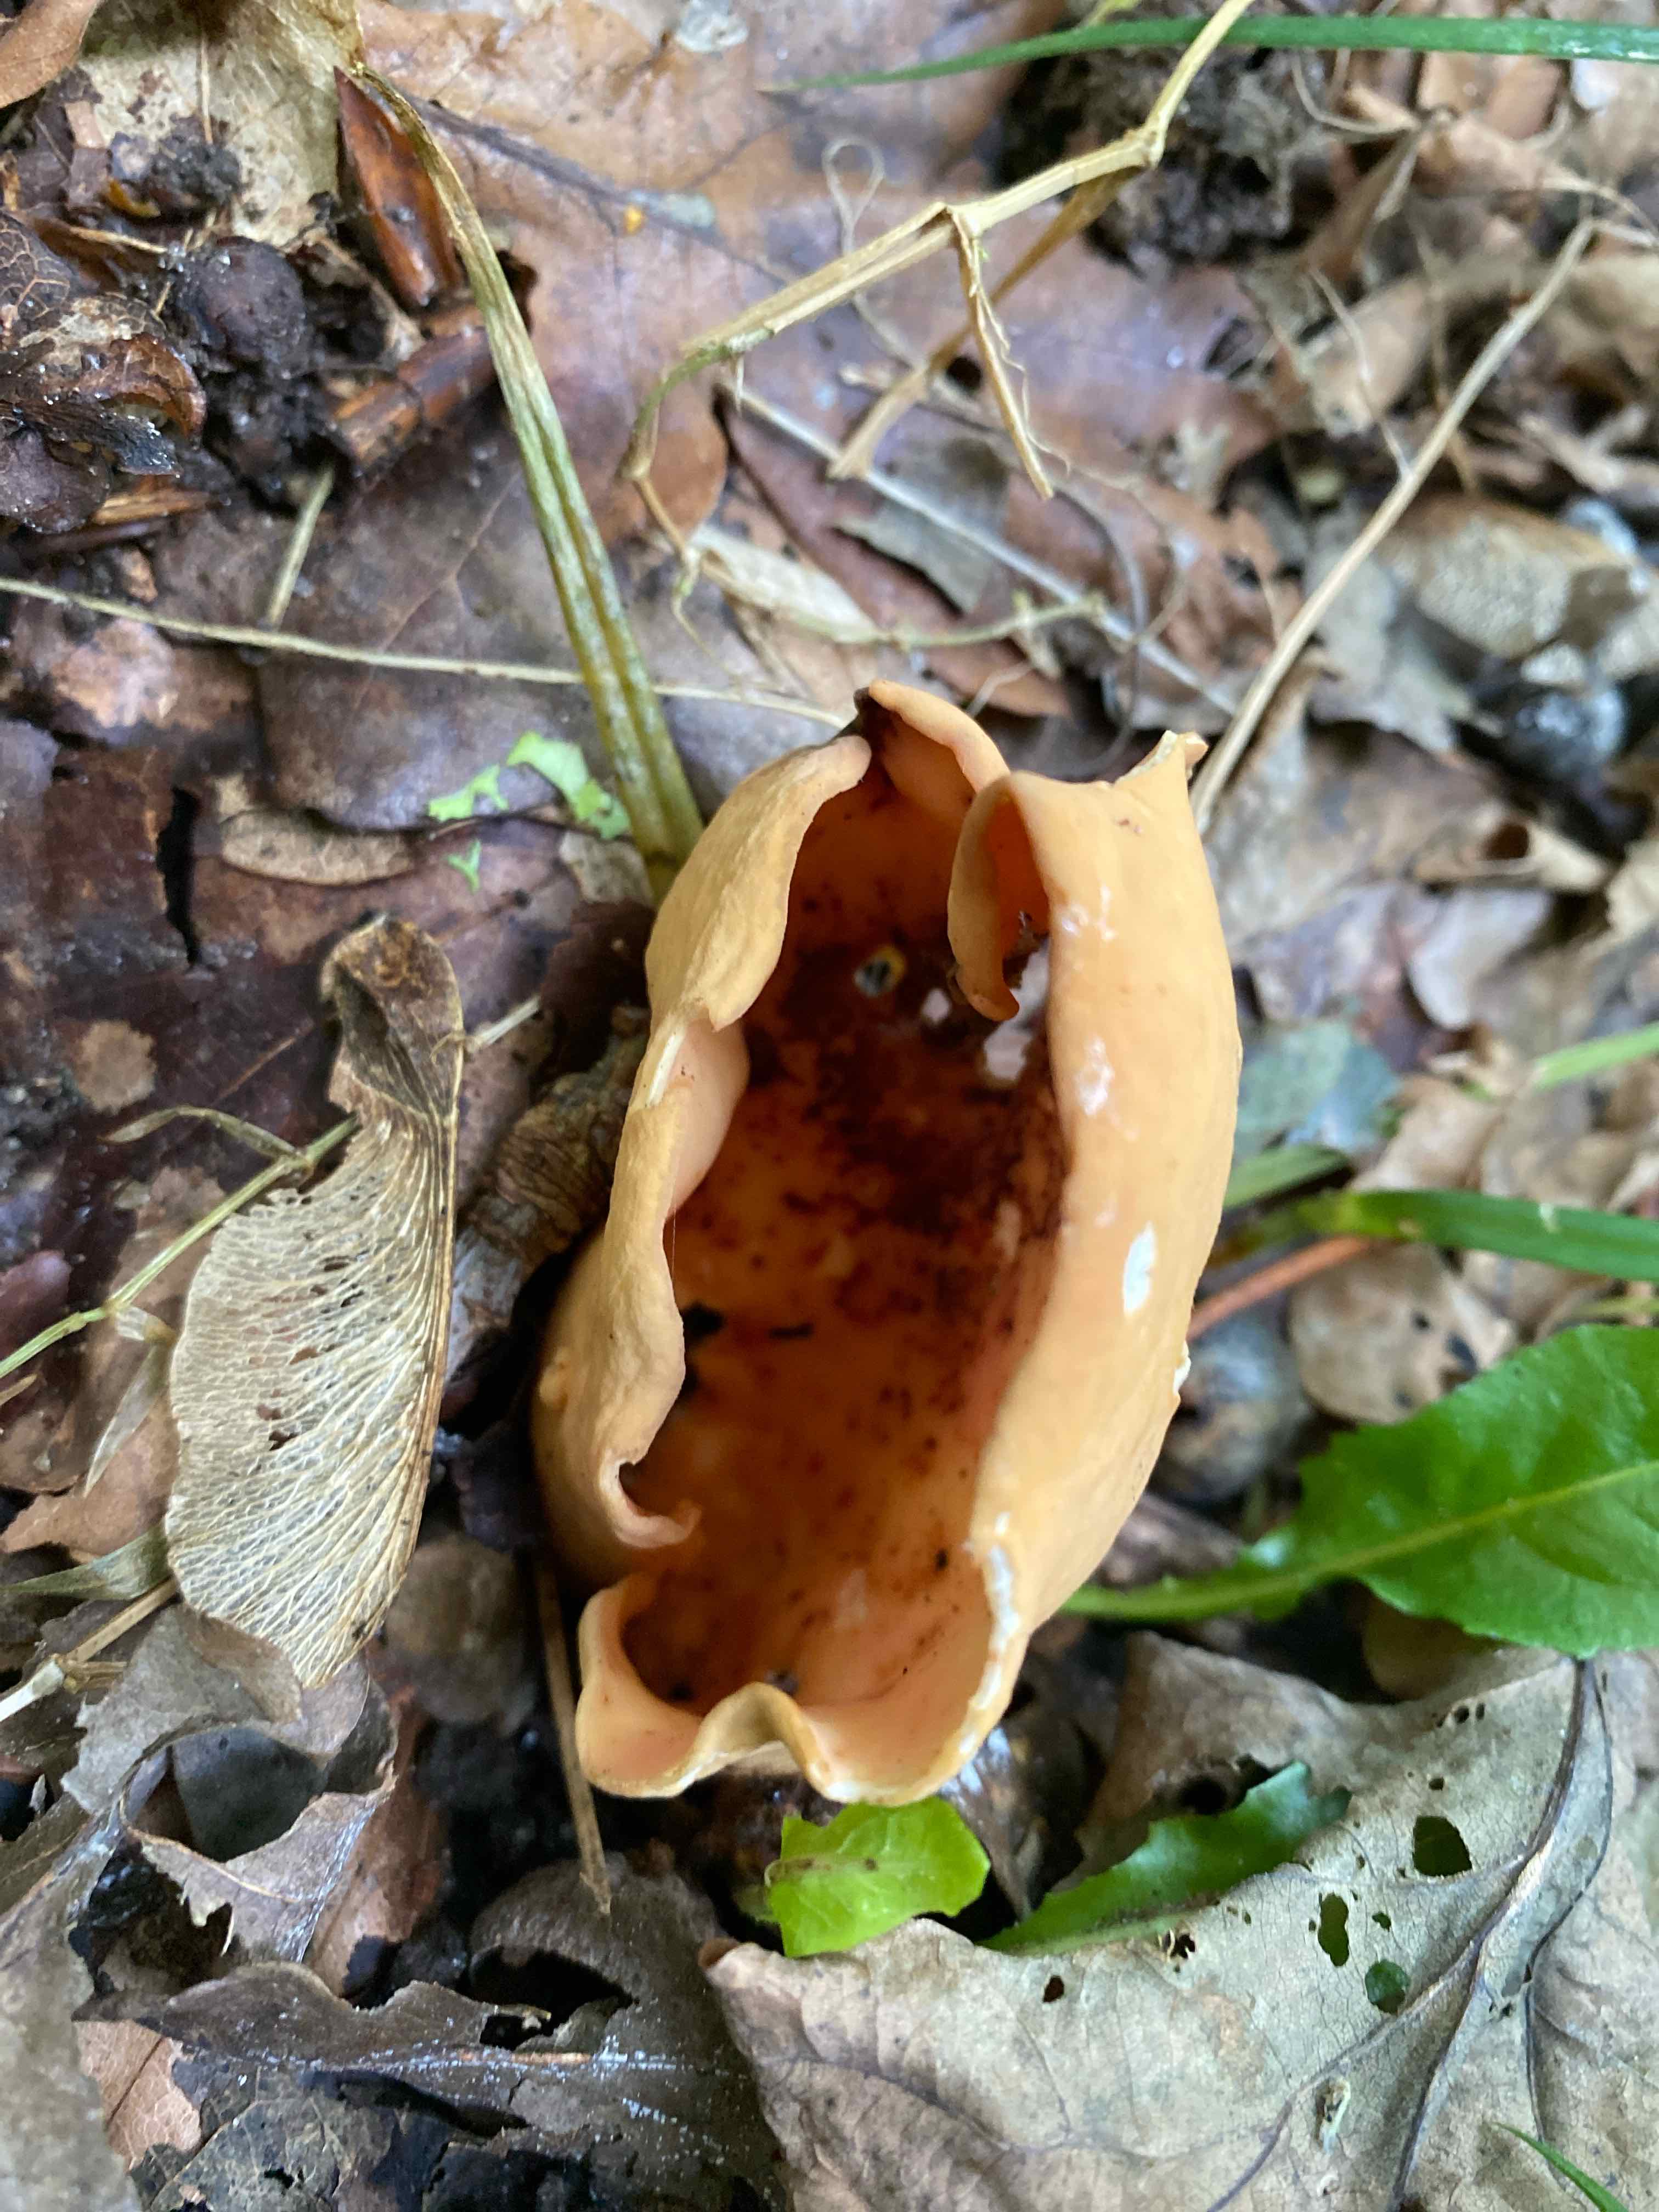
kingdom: Fungi
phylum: Ascomycota
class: Pezizomycetes
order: Pezizales
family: Otideaceae
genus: Otidea
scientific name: Otidea onotica
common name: æsel-ørebæger
